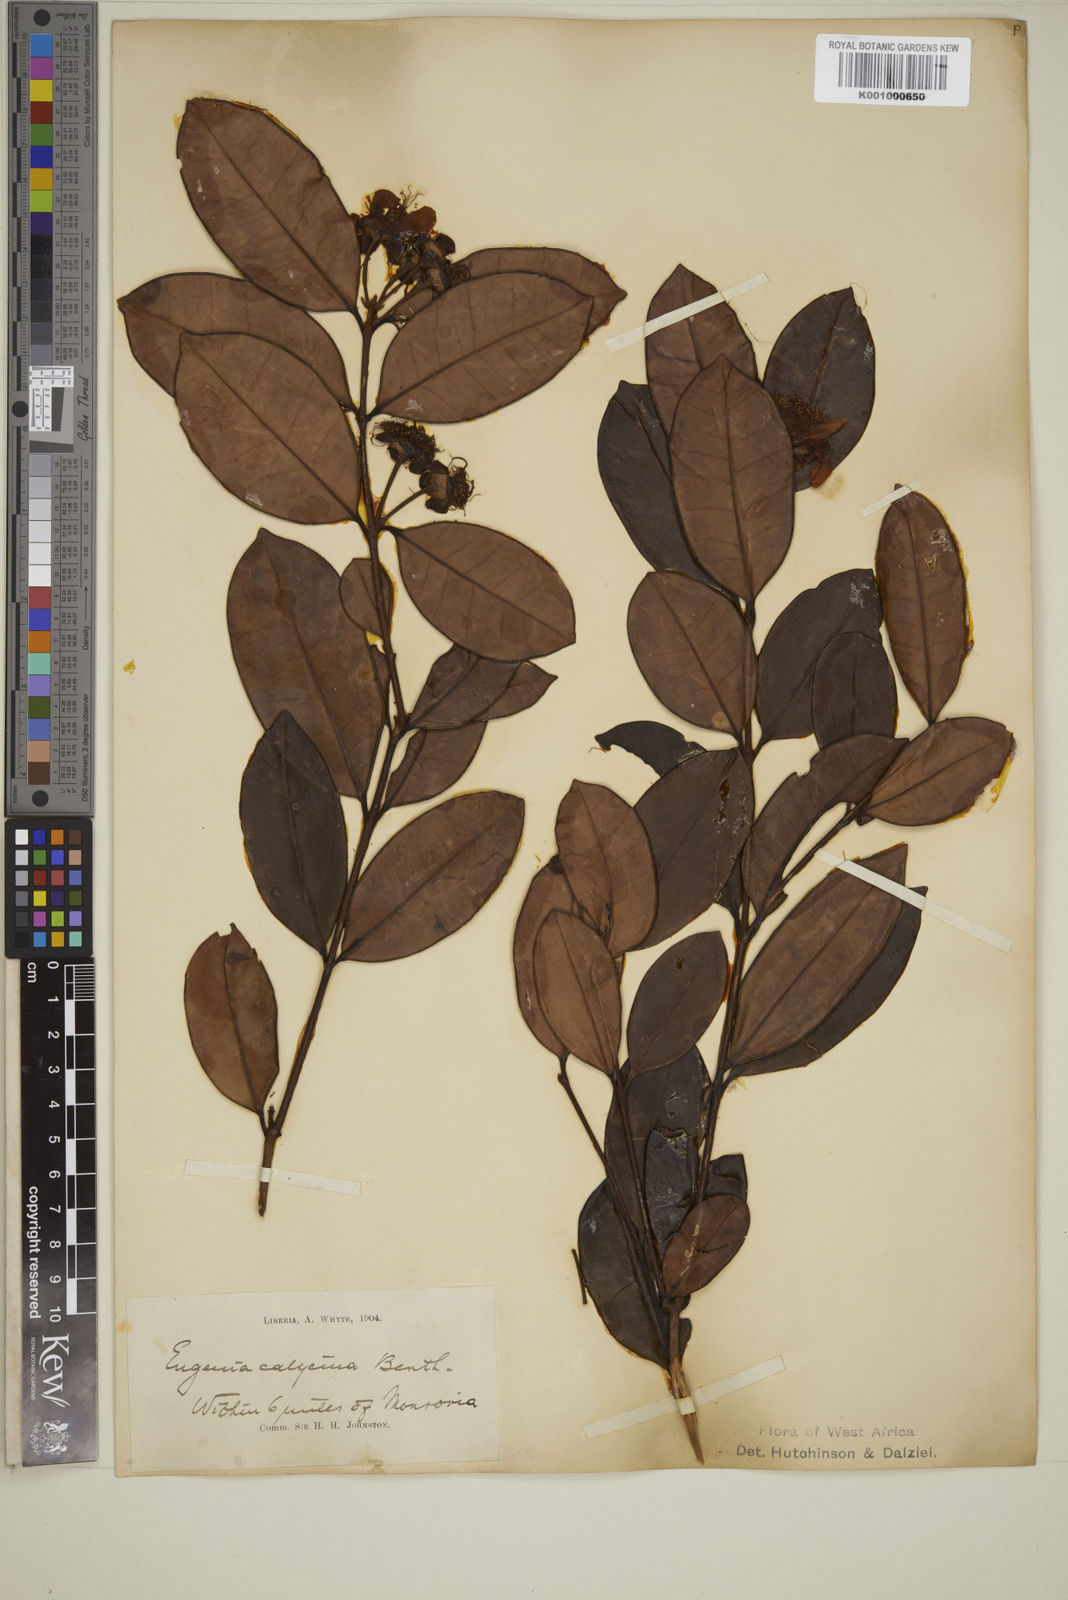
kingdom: Plantae
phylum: Tracheophyta
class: Magnoliopsida
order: Myrtales
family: Myrtaceae
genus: Eugenia
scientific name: Eugenia liberiana
